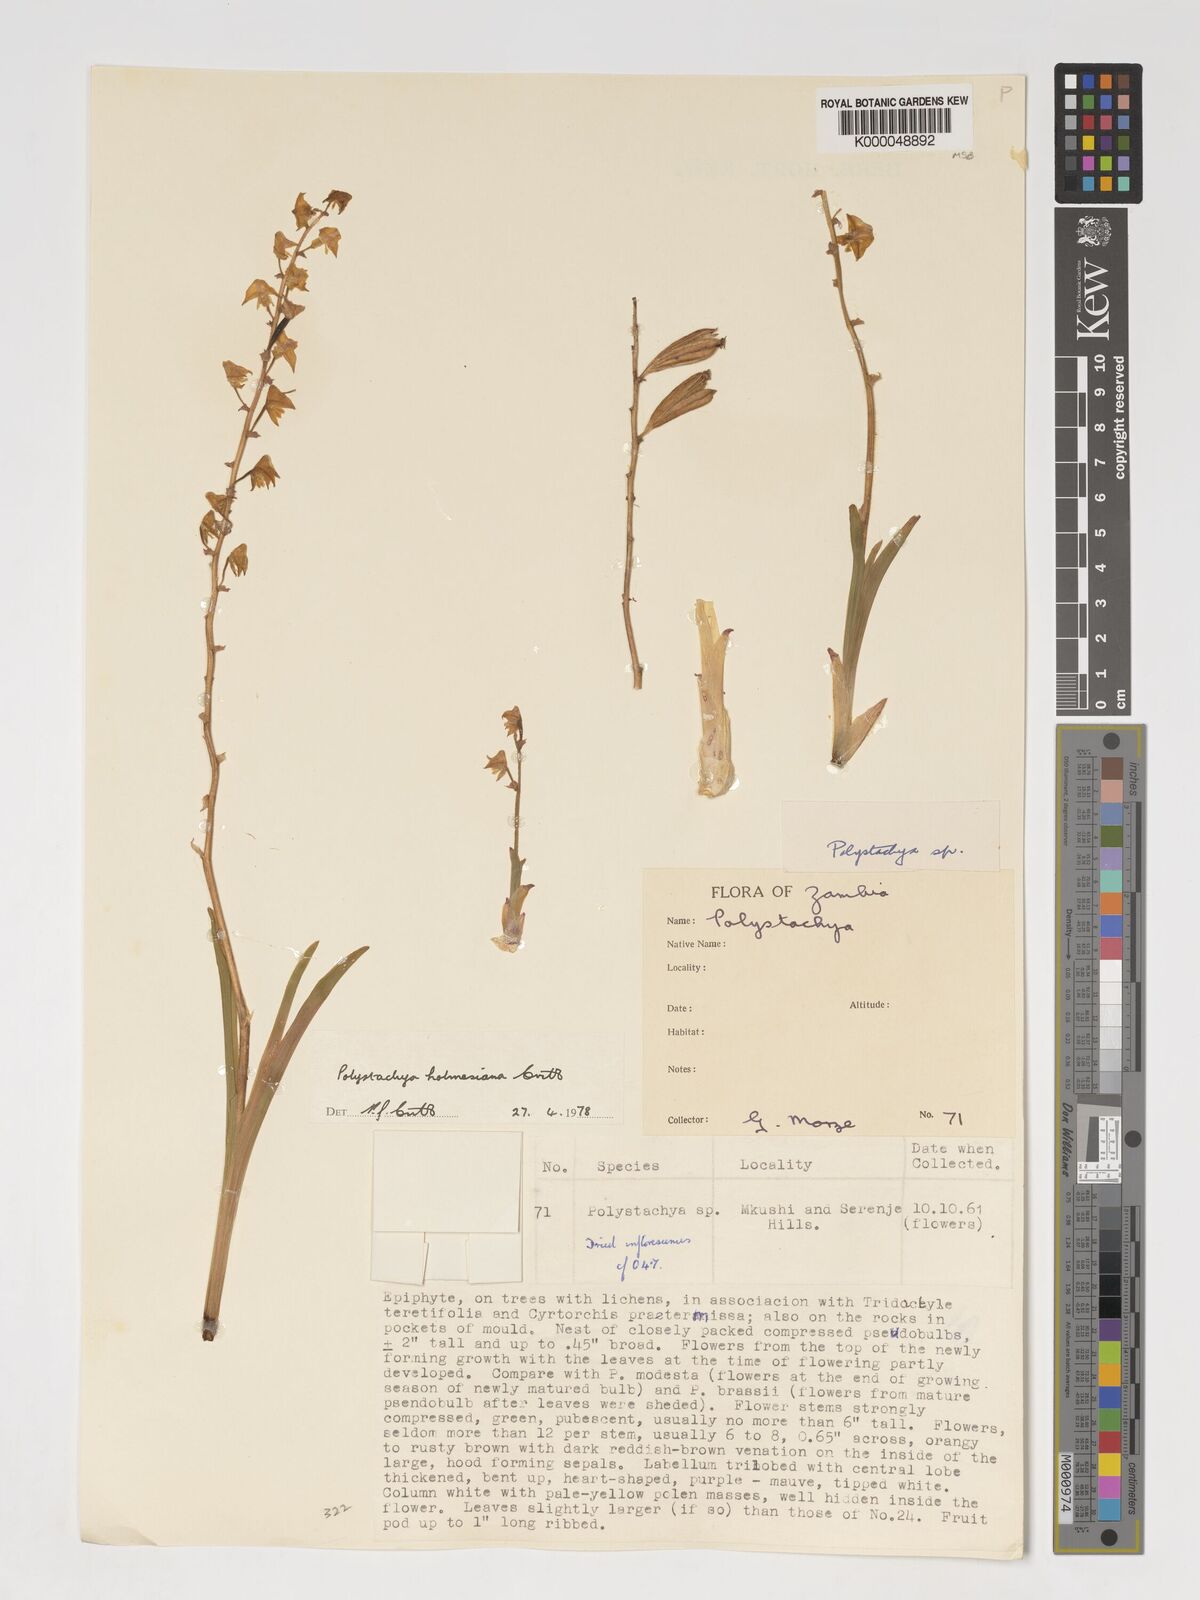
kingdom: Plantae
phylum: Tracheophyta
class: Liliopsida
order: Asparagales
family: Orchidaceae
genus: Polystachya
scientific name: Polystachya holmesiana
